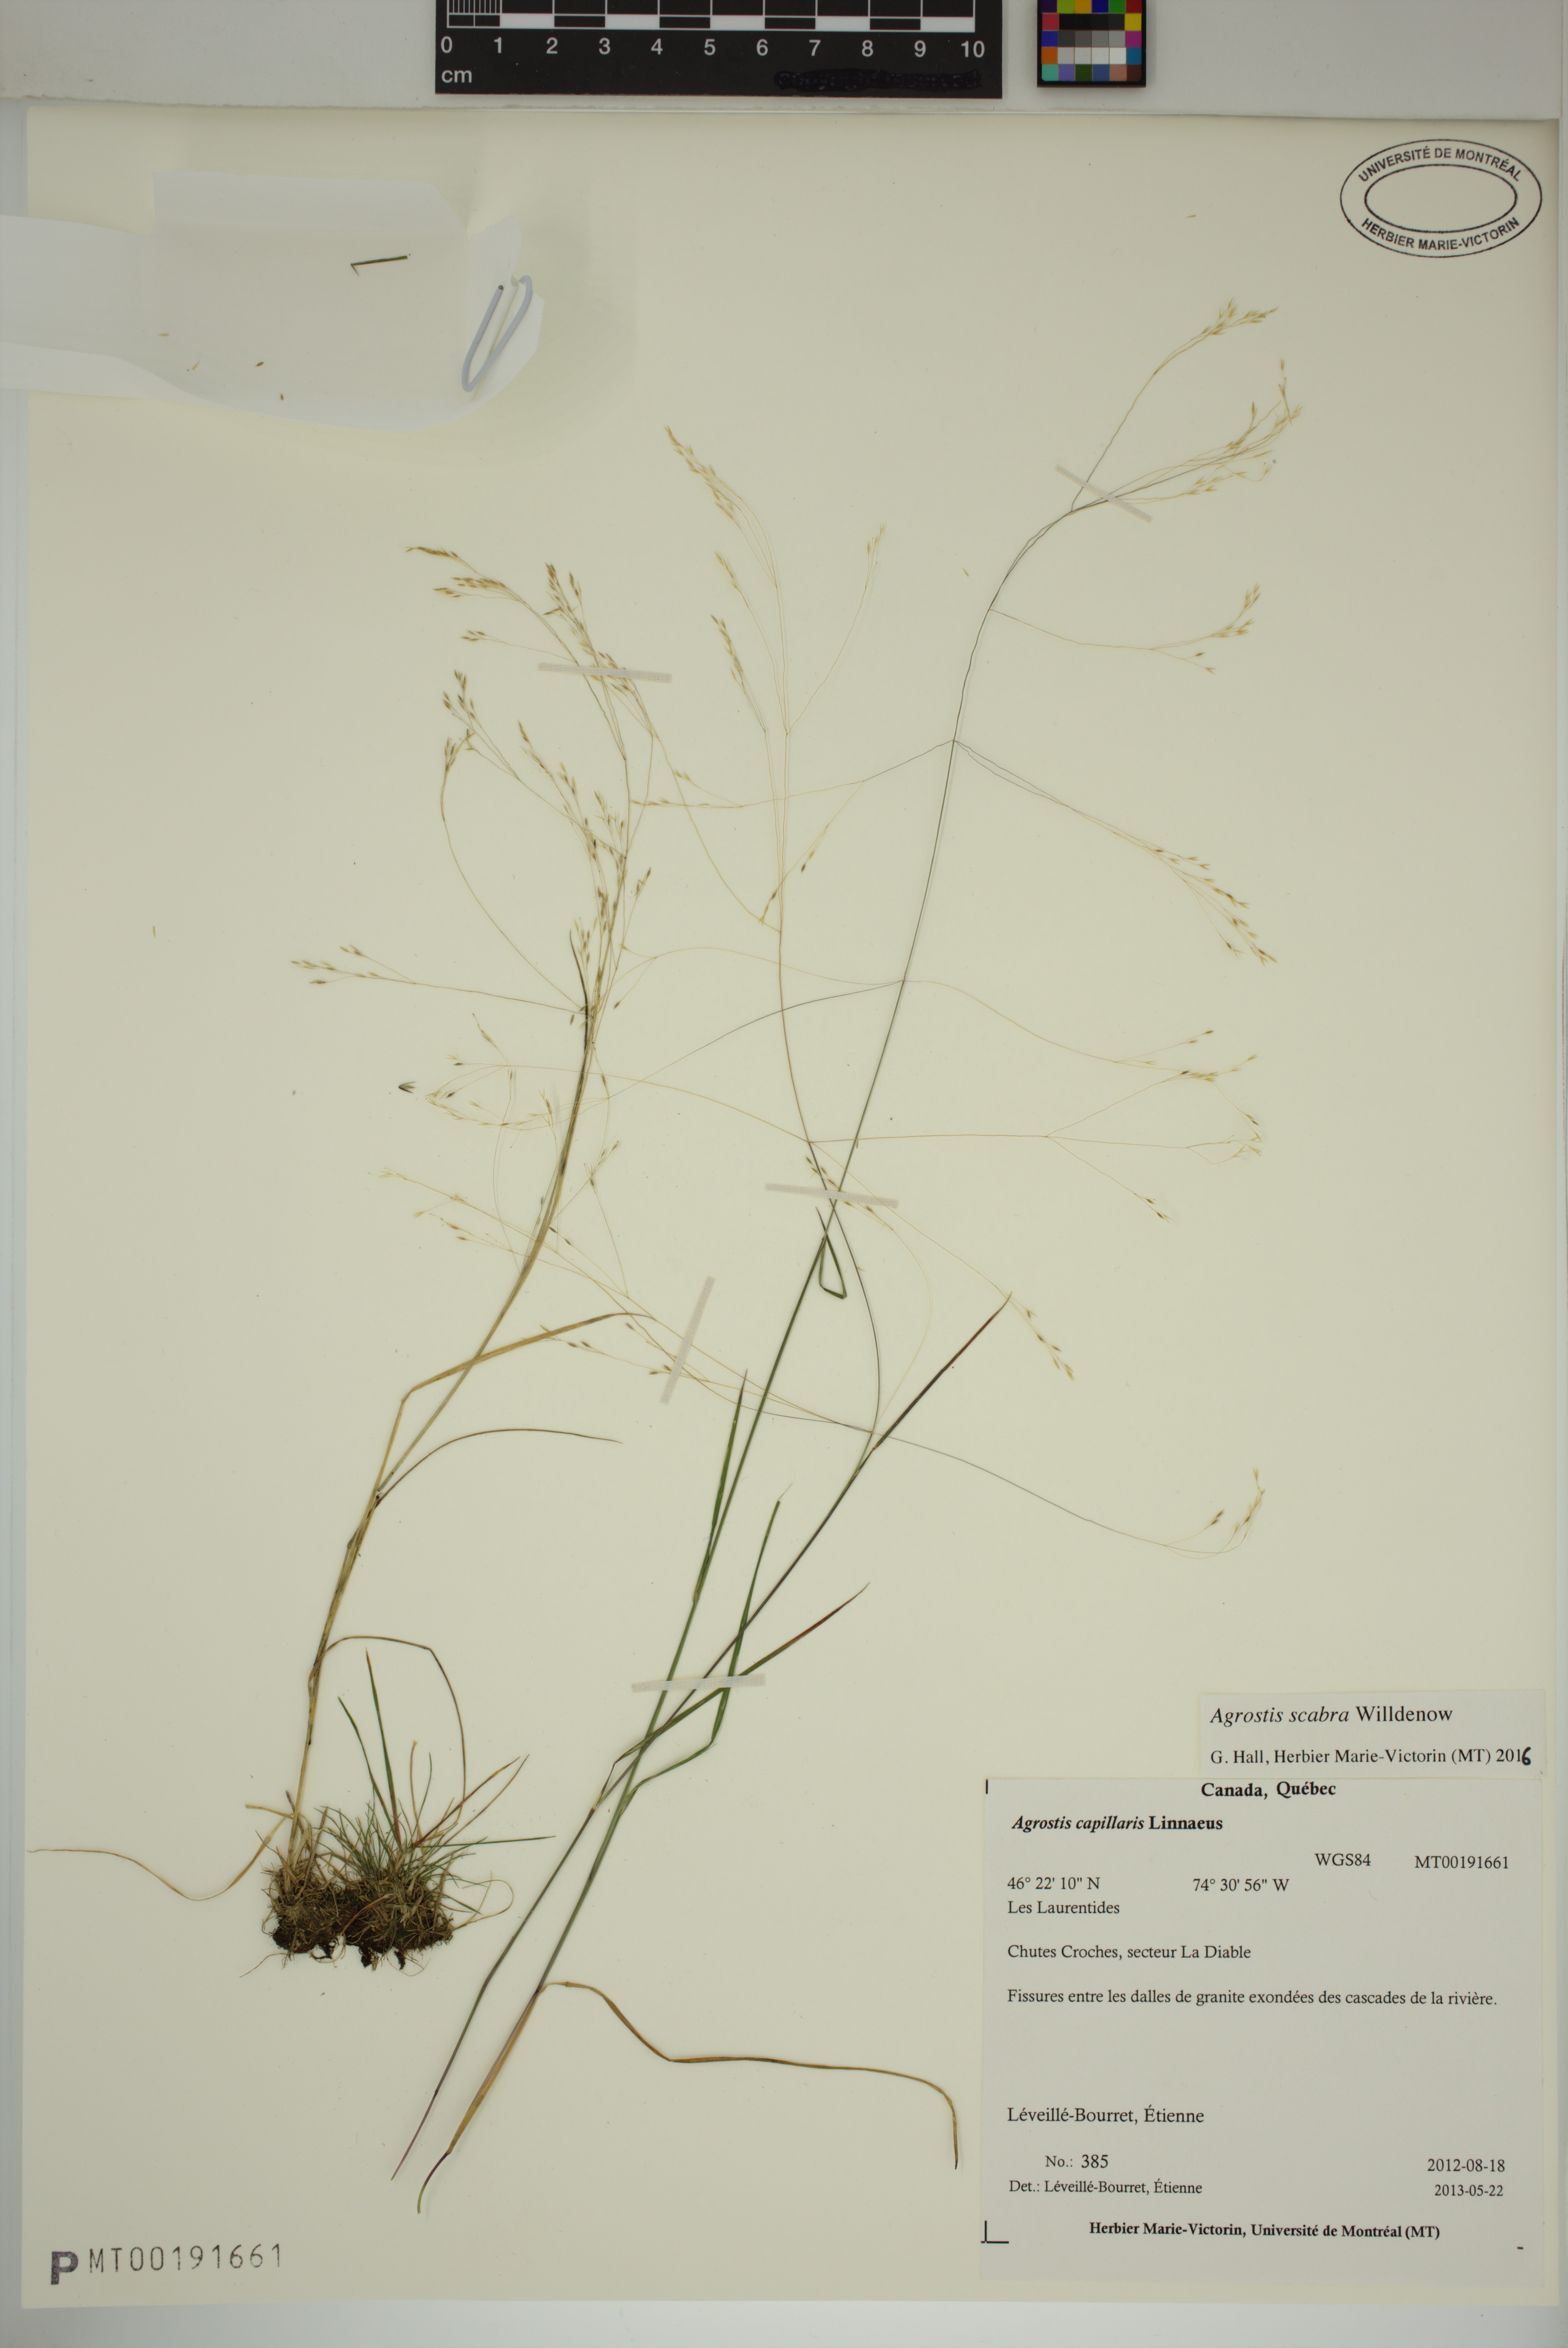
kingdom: Plantae
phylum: Tracheophyta
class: Liliopsida
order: Poales
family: Poaceae
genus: Agrostis
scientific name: Agrostis scabra
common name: Rough bent
